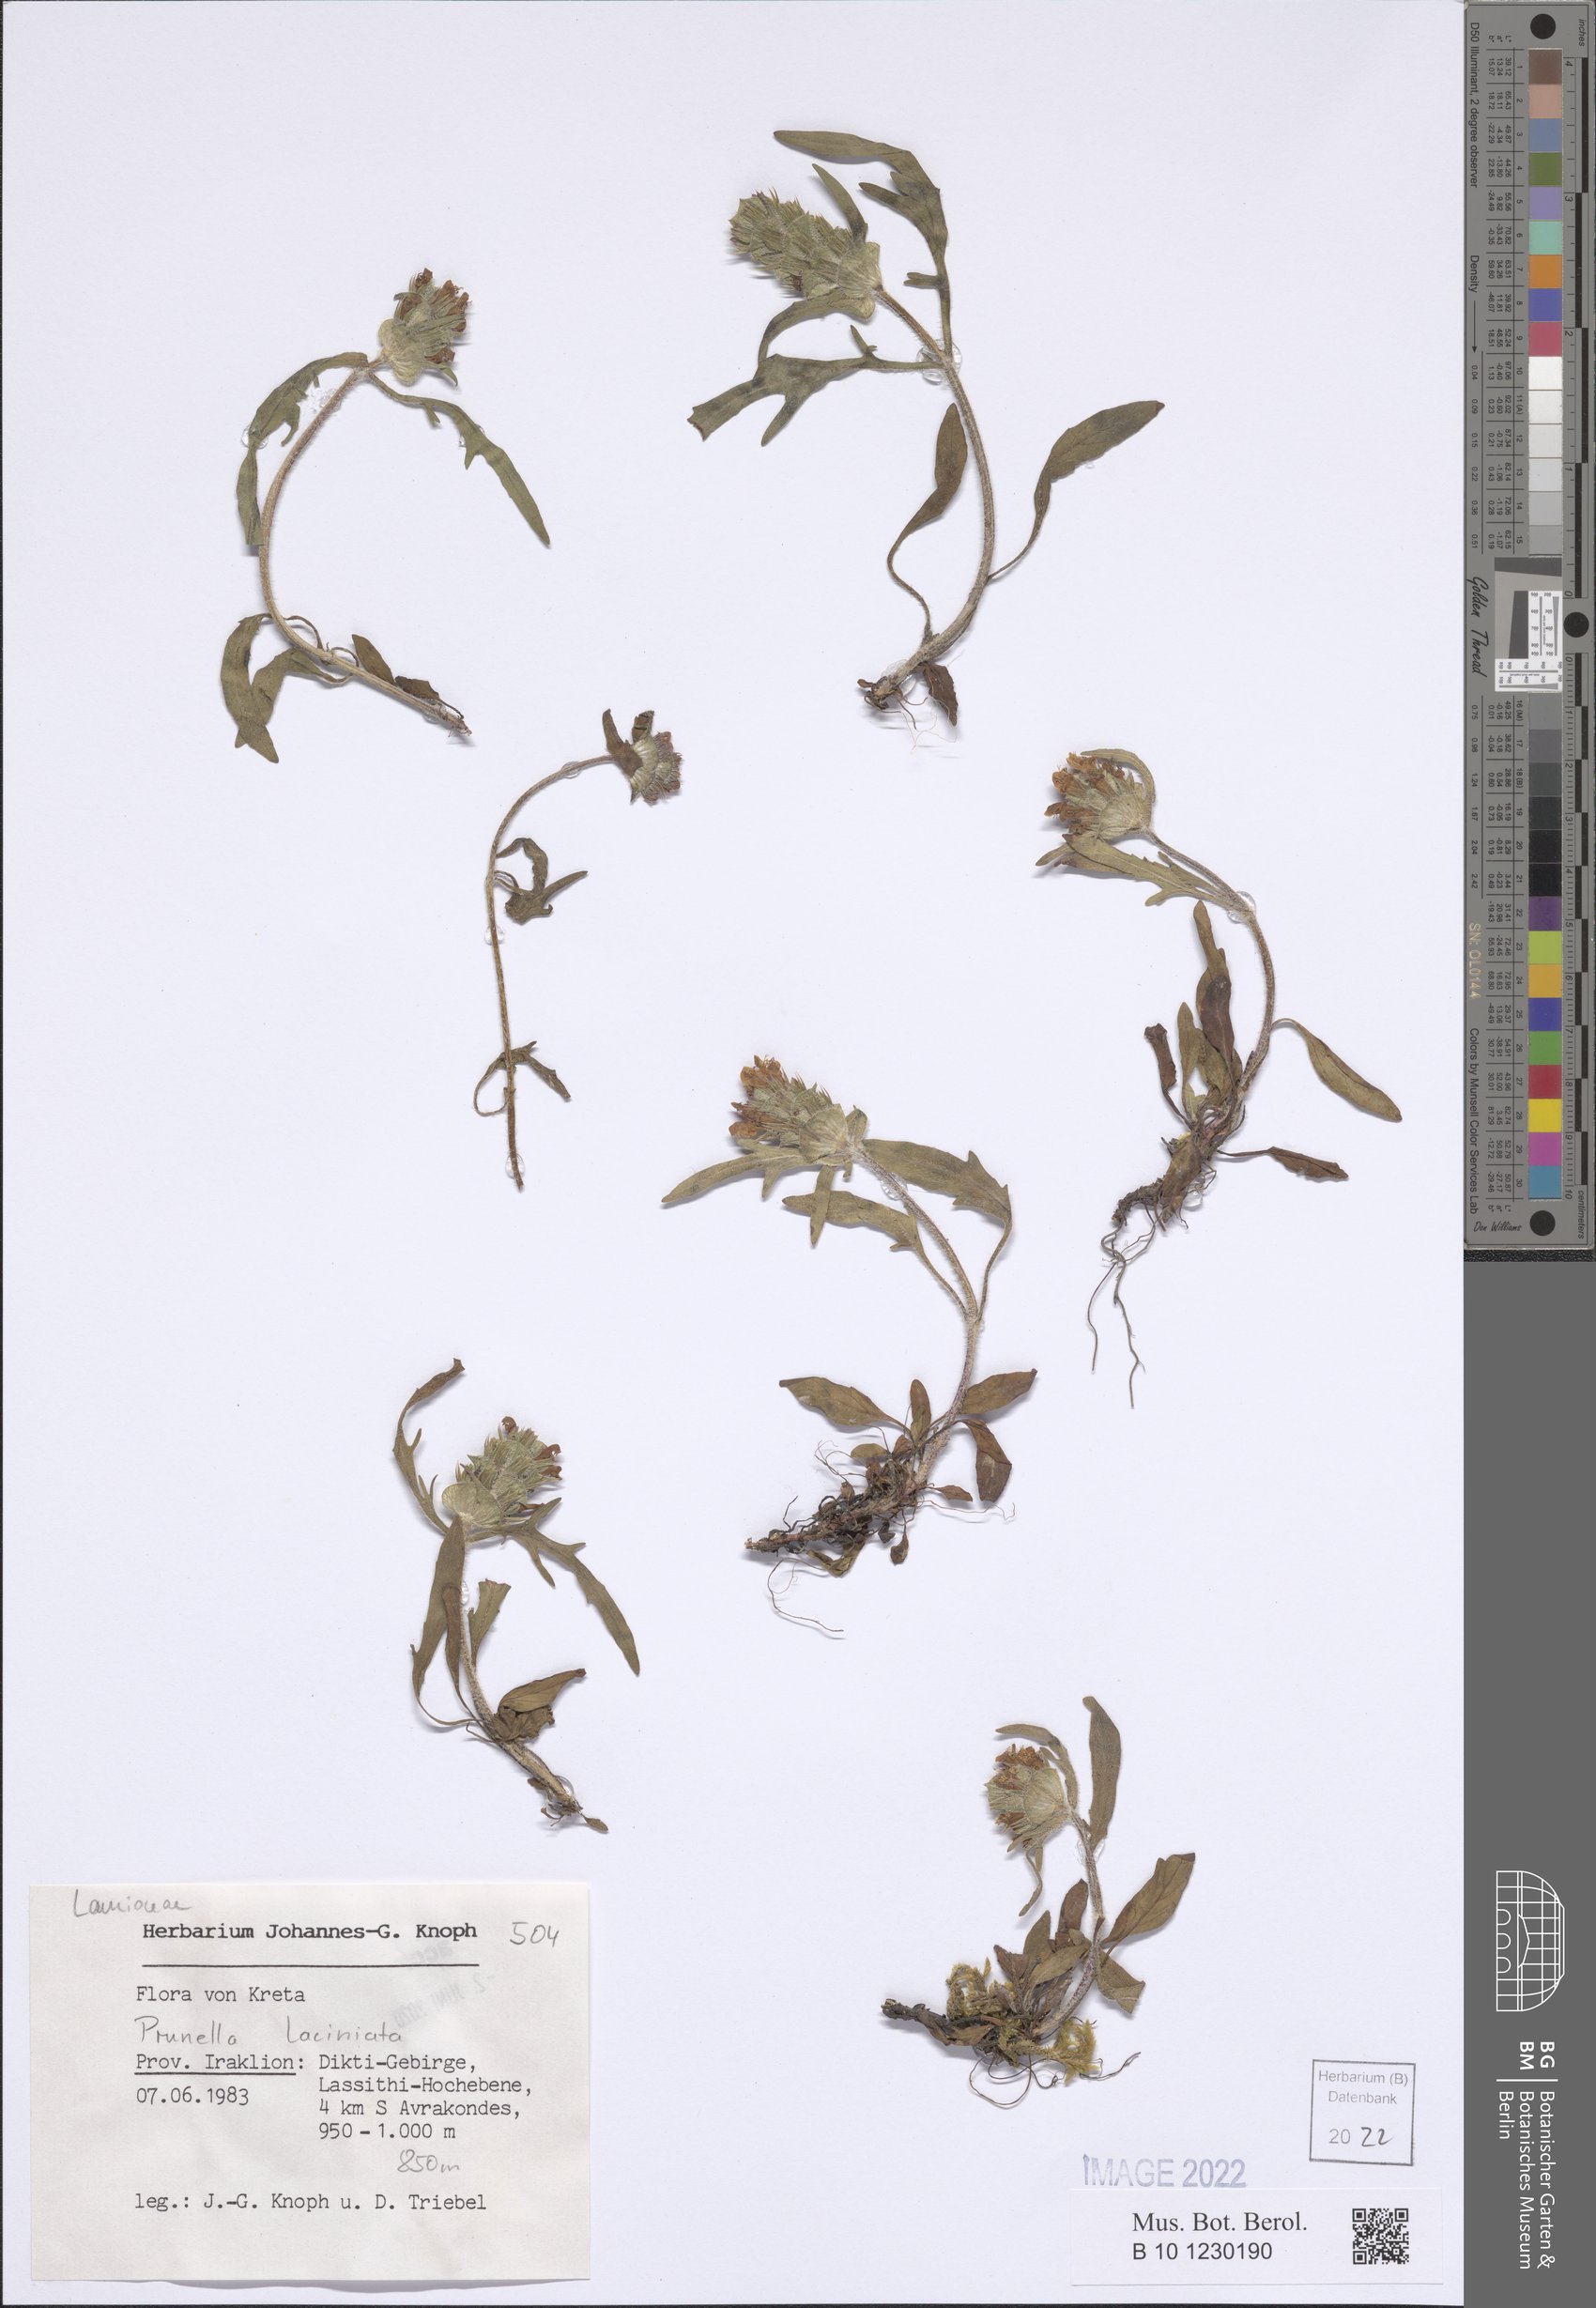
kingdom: Plantae
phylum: Tracheophyta
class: Magnoliopsida
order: Lamiales
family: Lamiaceae
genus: Prunella
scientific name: Prunella laciniata
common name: Cut-leaved selfheal
